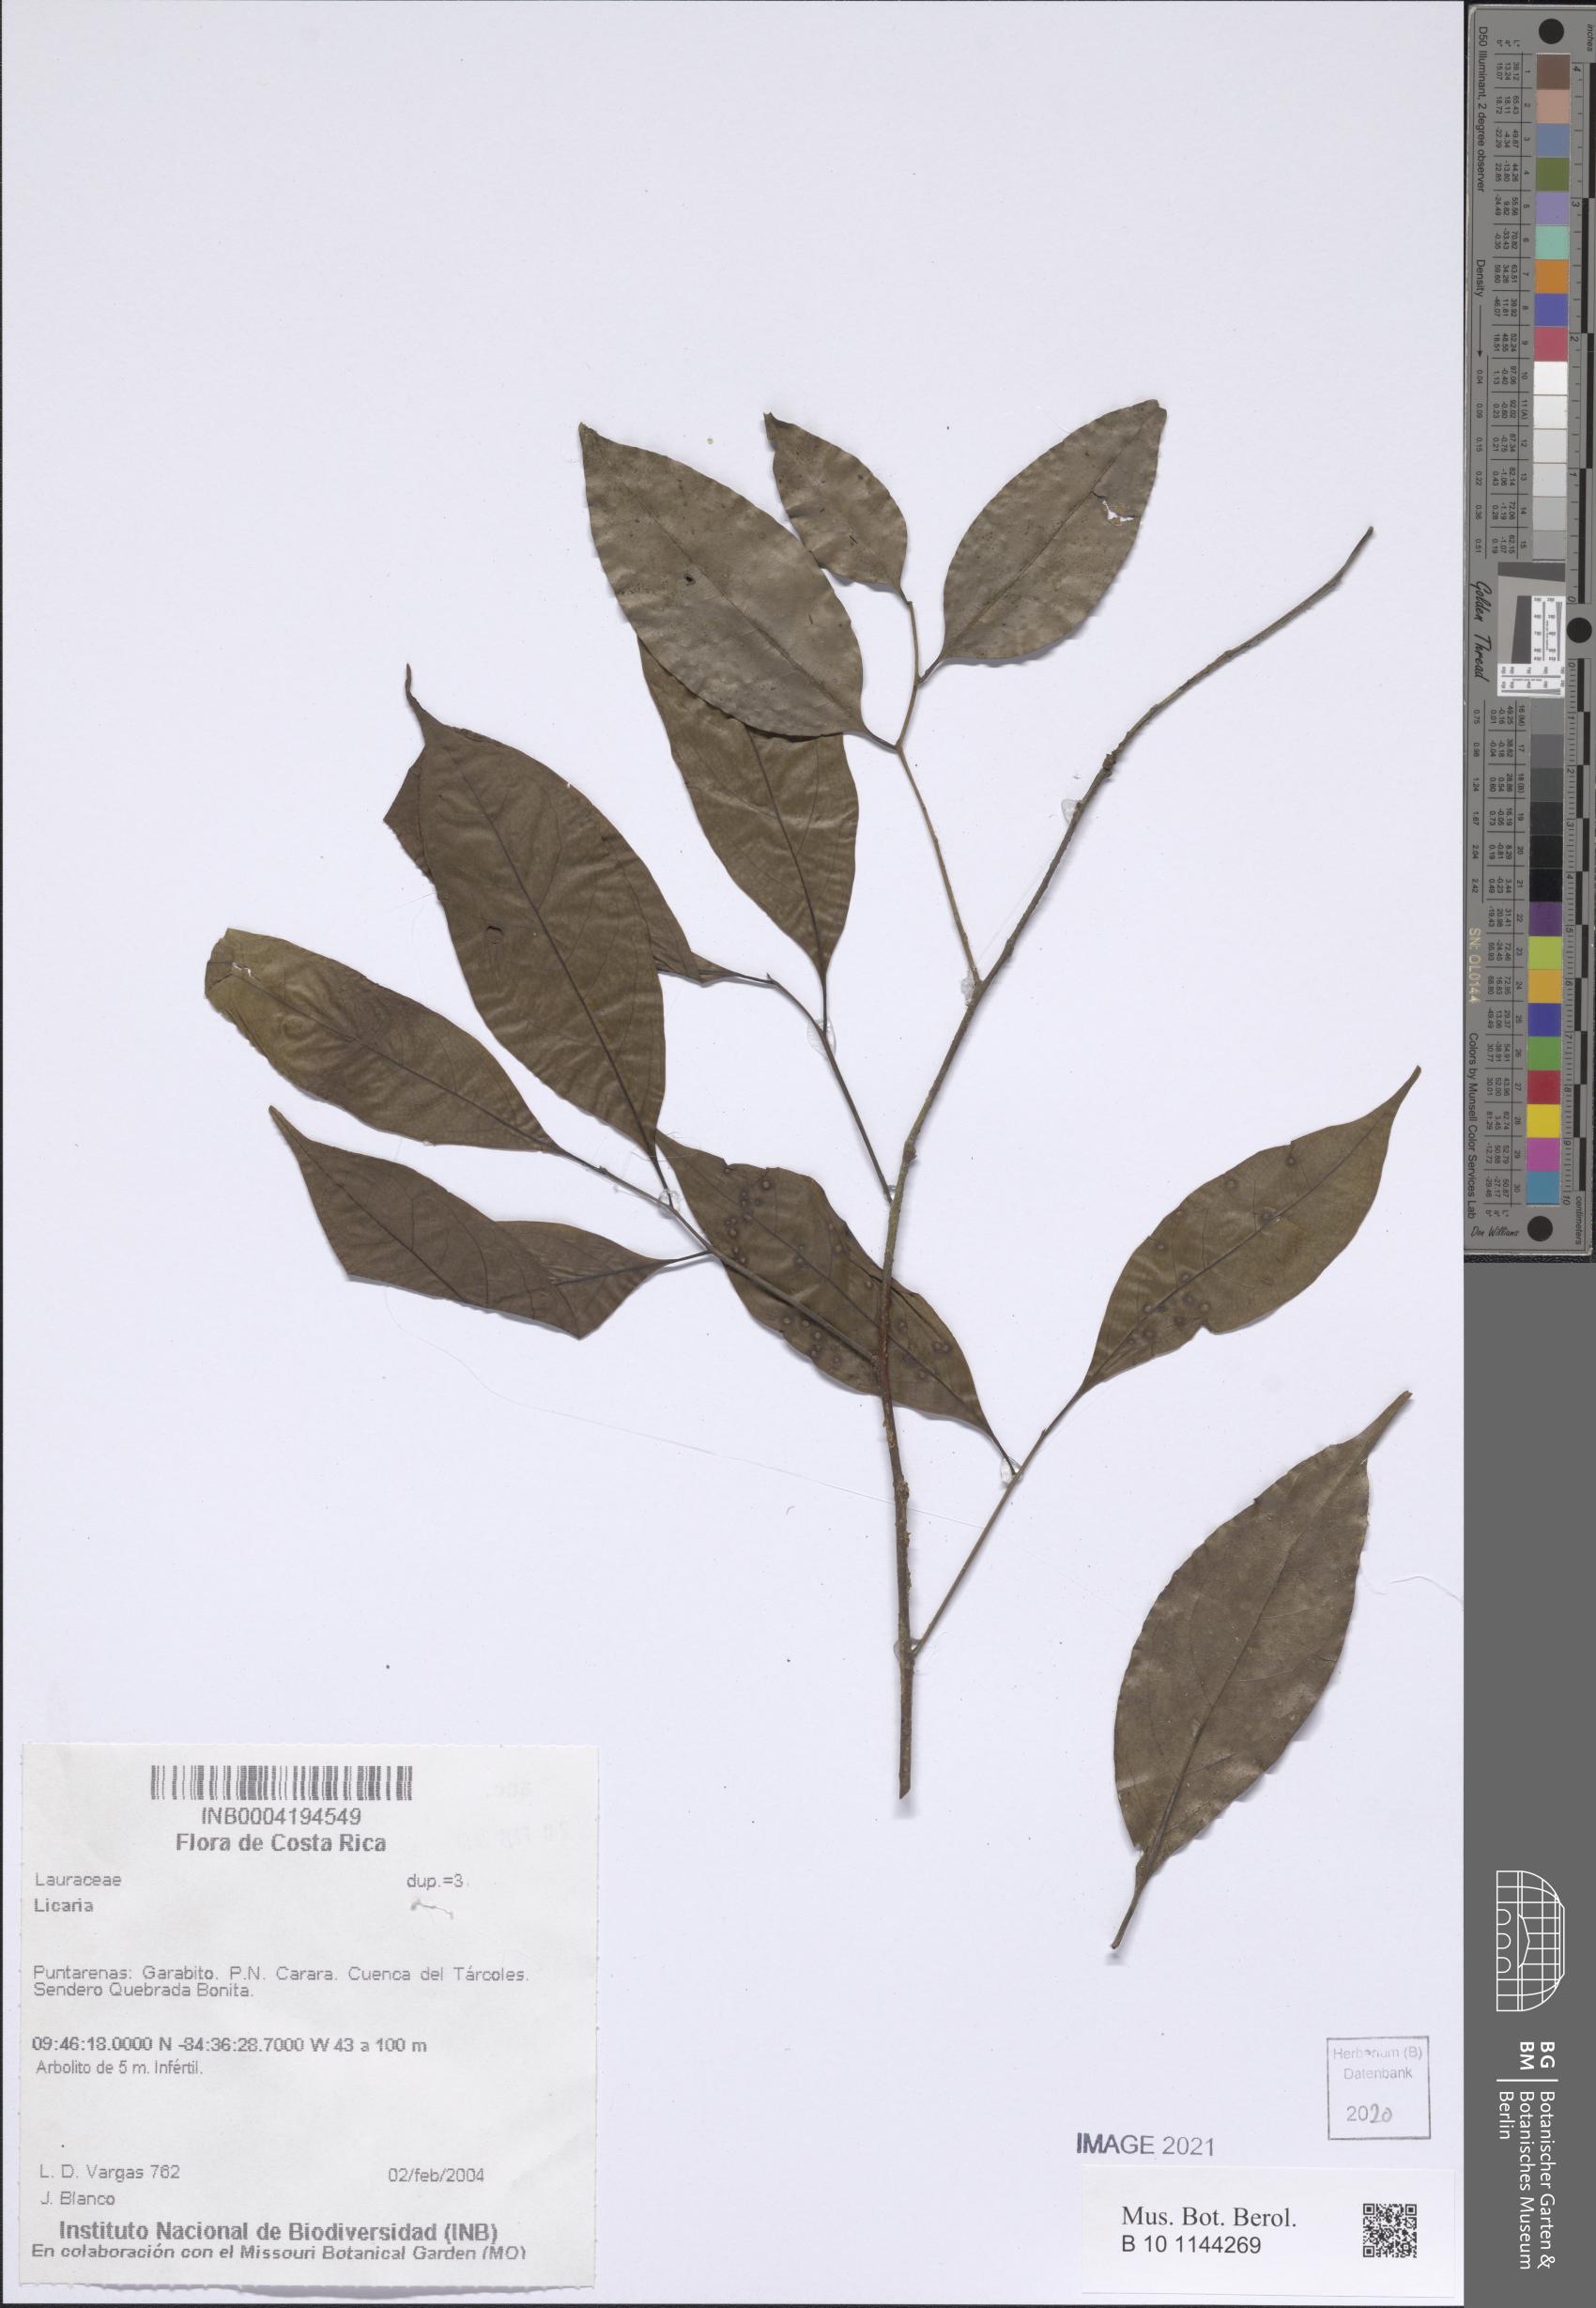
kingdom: Plantae
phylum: Tracheophyta
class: Magnoliopsida
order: Laurales
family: Lauraceae
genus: Licaria
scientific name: Licaria
